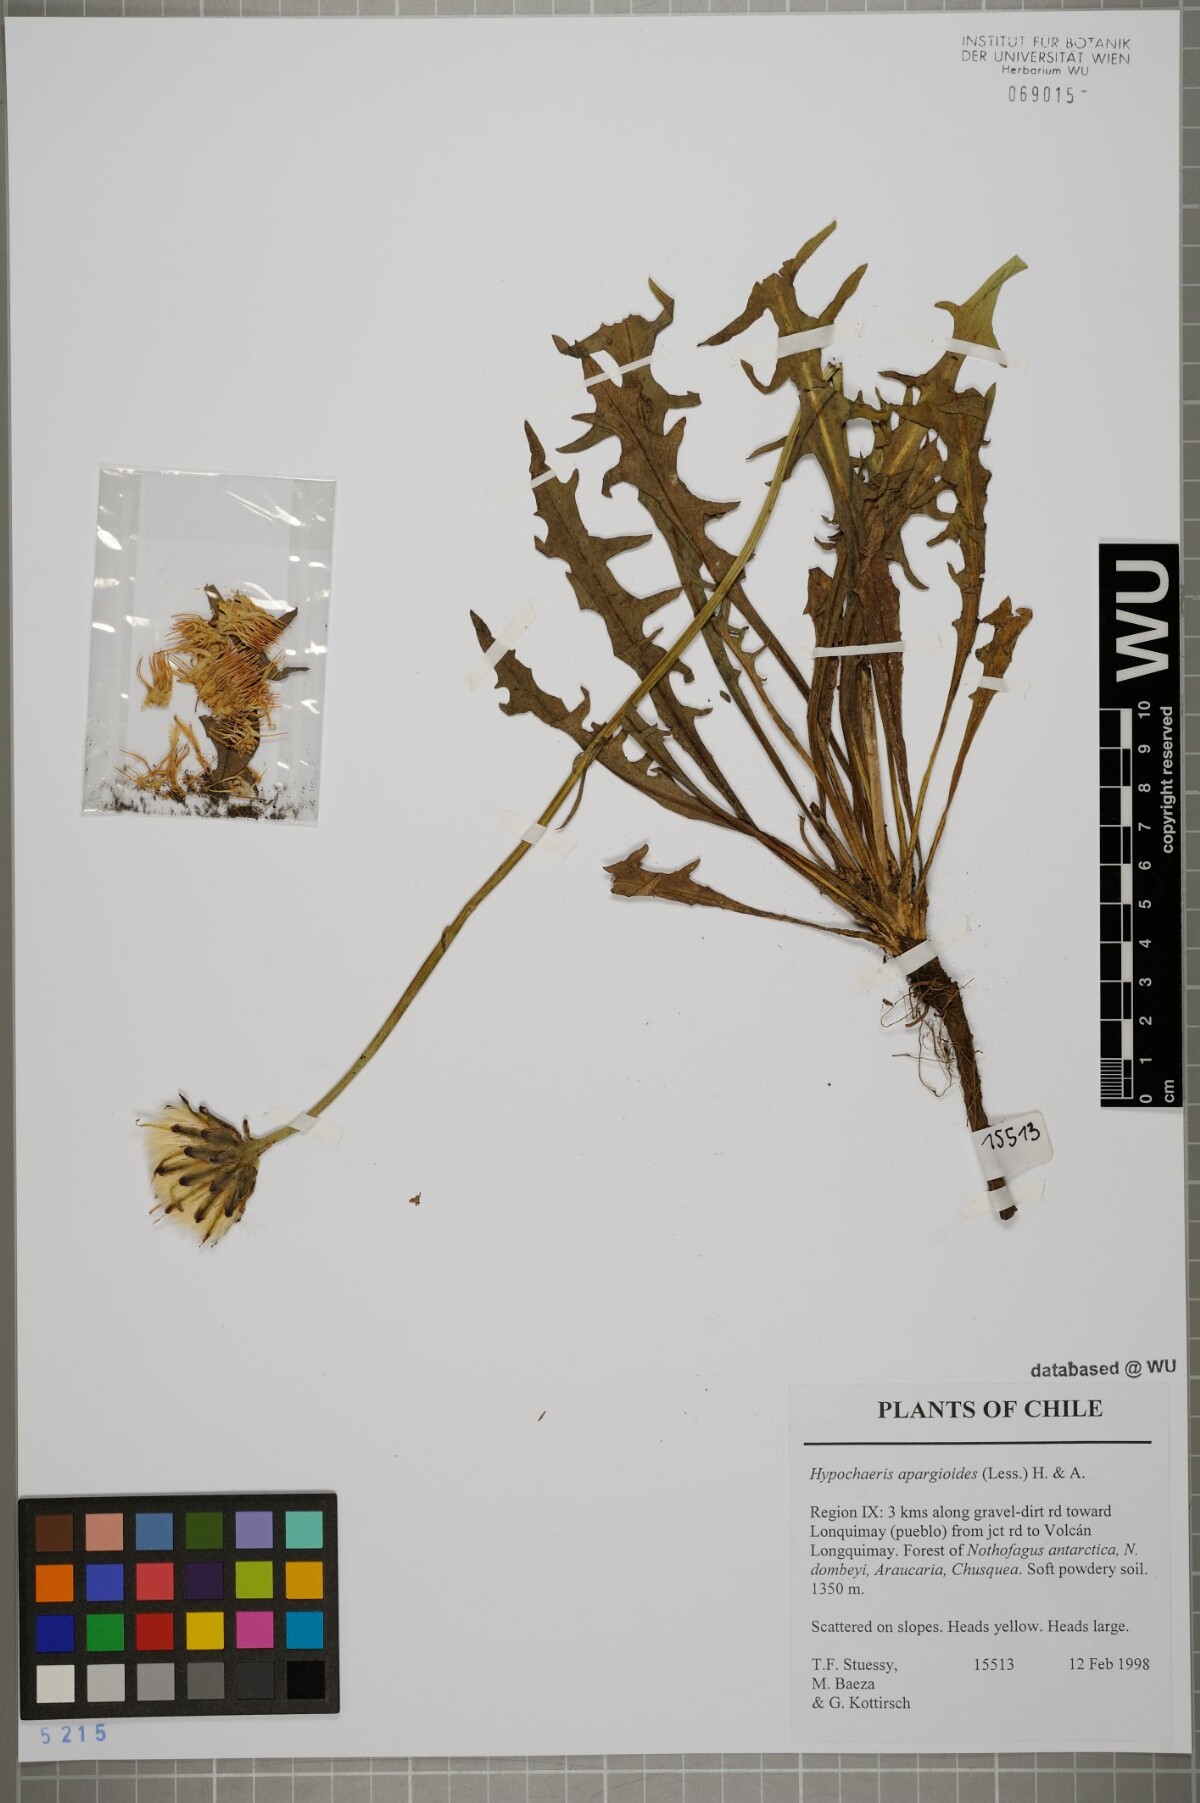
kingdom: Plantae
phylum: Tracheophyta
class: Magnoliopsida
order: Asterales
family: Asteraceae
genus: Hypochaeris
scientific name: Hypochaeris apargioides
